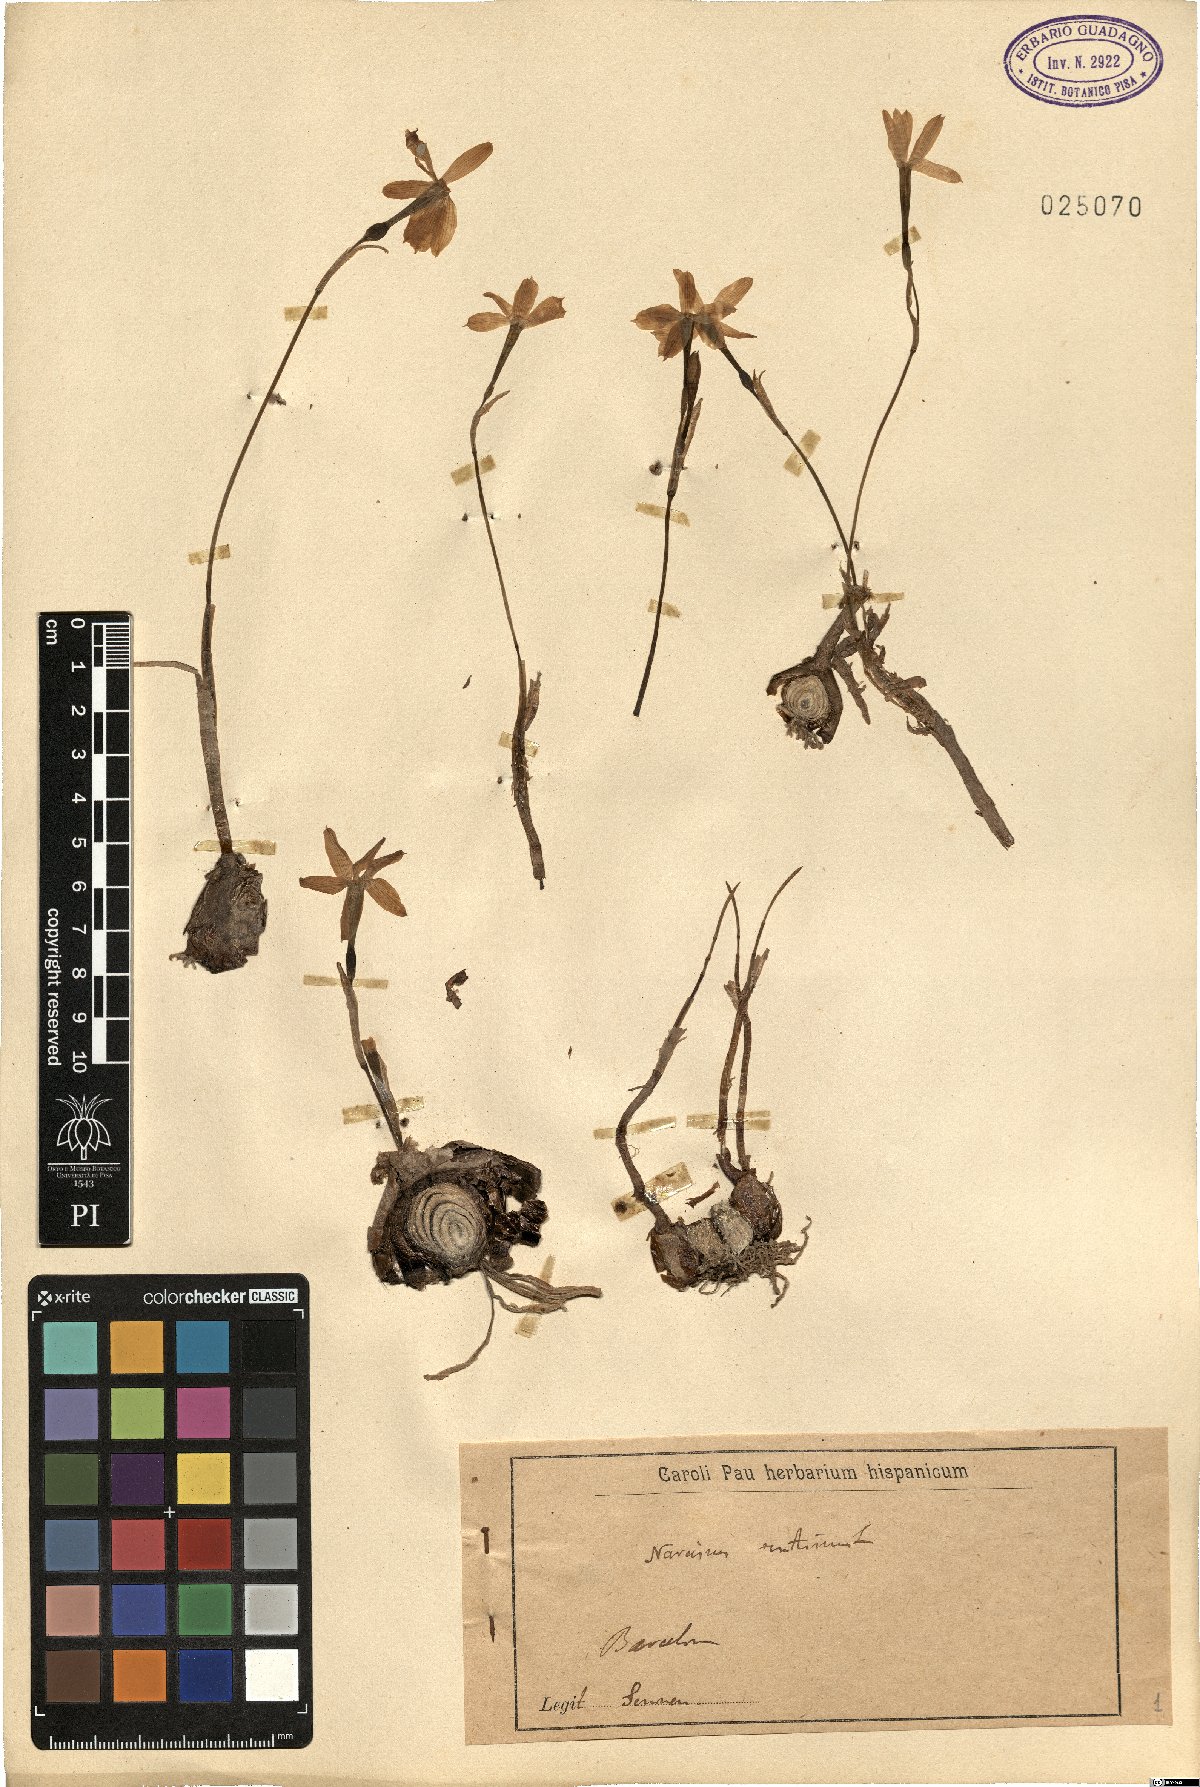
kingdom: Plantae
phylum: Tracheophyta
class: Liliopsida
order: Asparagales
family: Amaryllidaceae
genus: Narcissus
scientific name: Narcissus serotinus
